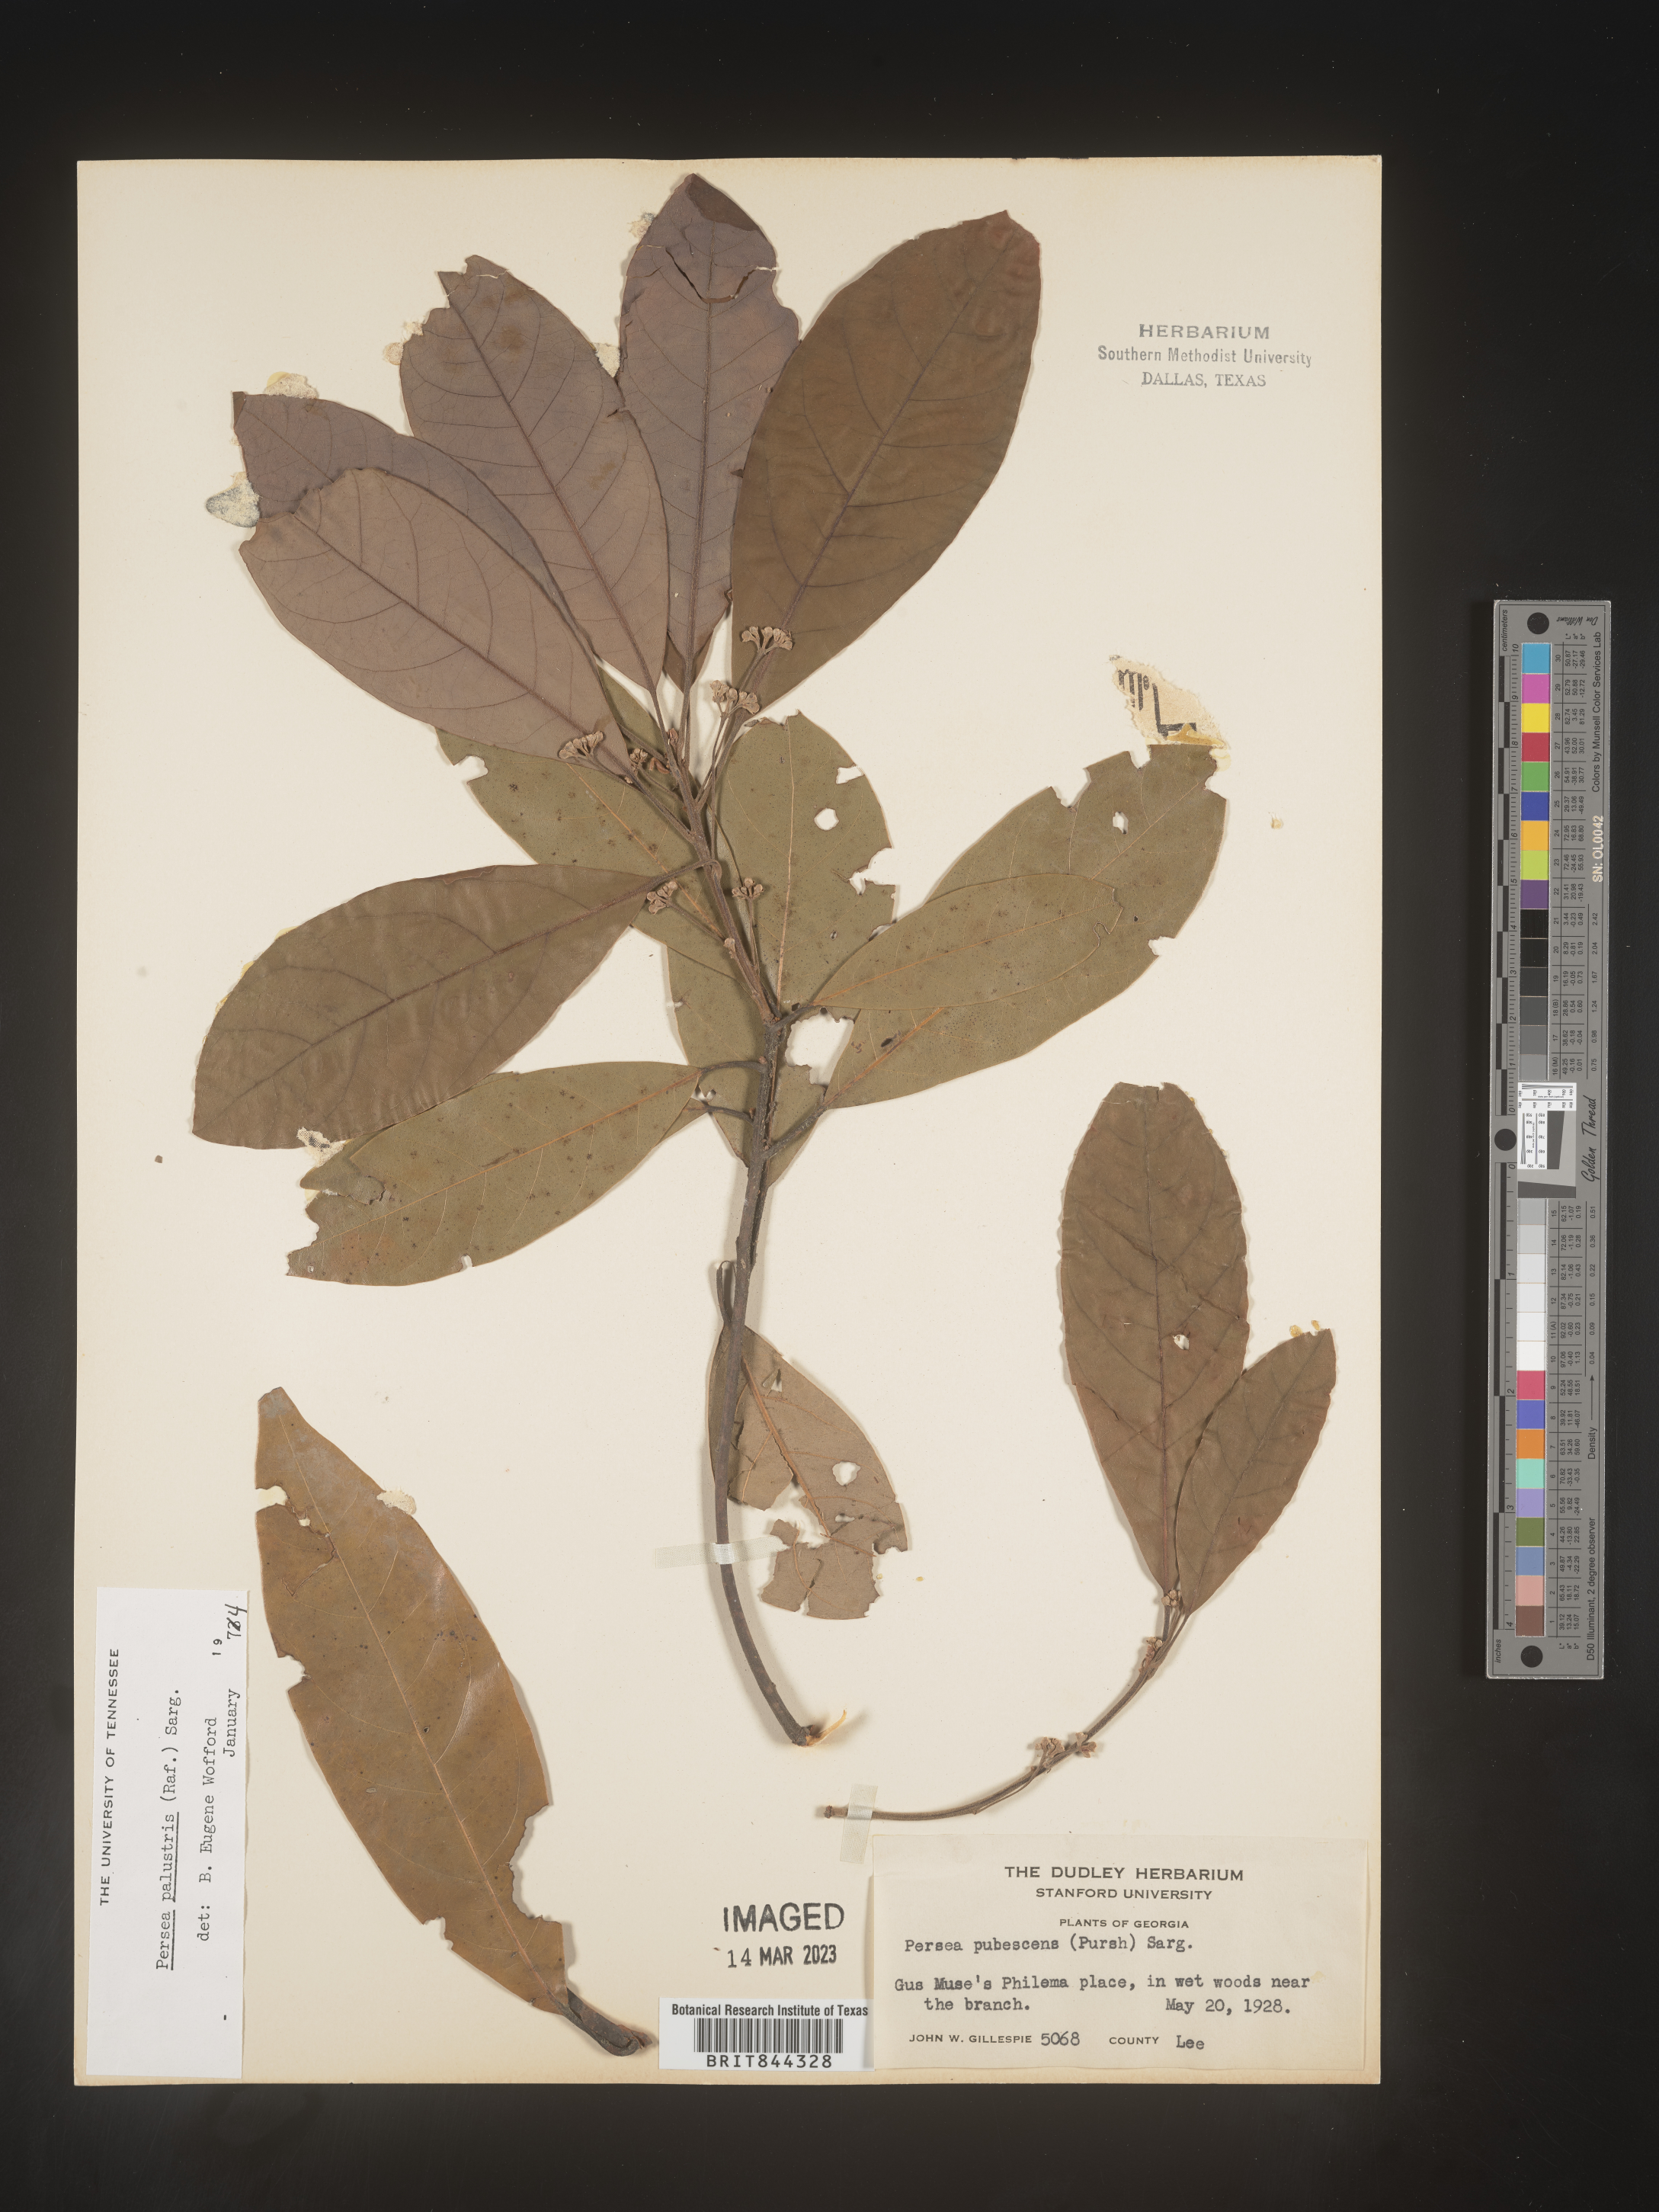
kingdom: Plantae
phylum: Tracheophyta
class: Magnoliopsida
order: Laurales
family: Lauraceae
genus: Persea
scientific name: Persea palustris
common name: Swampbay
